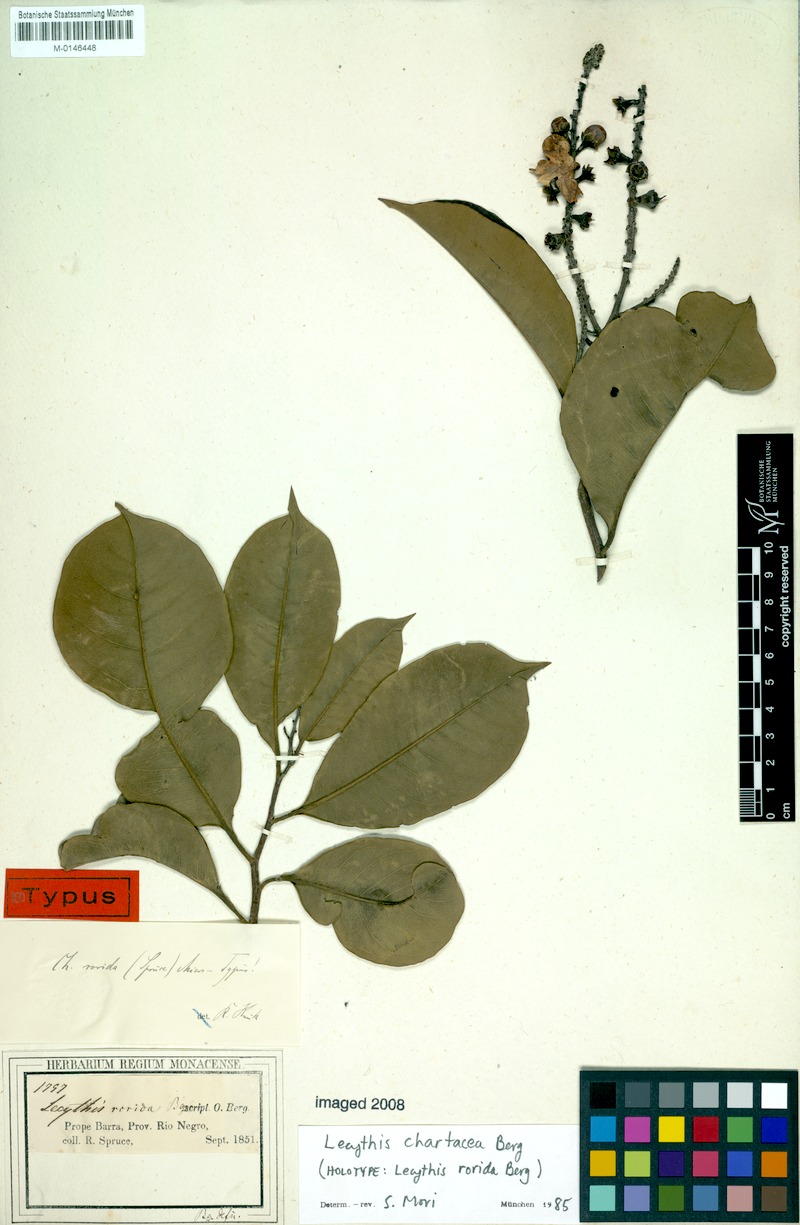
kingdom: Plantae
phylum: Tracheophyta
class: Magnoliopsida
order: Ericales
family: Lecythidaceae
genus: Lecythis
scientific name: Lecythis chartacea
